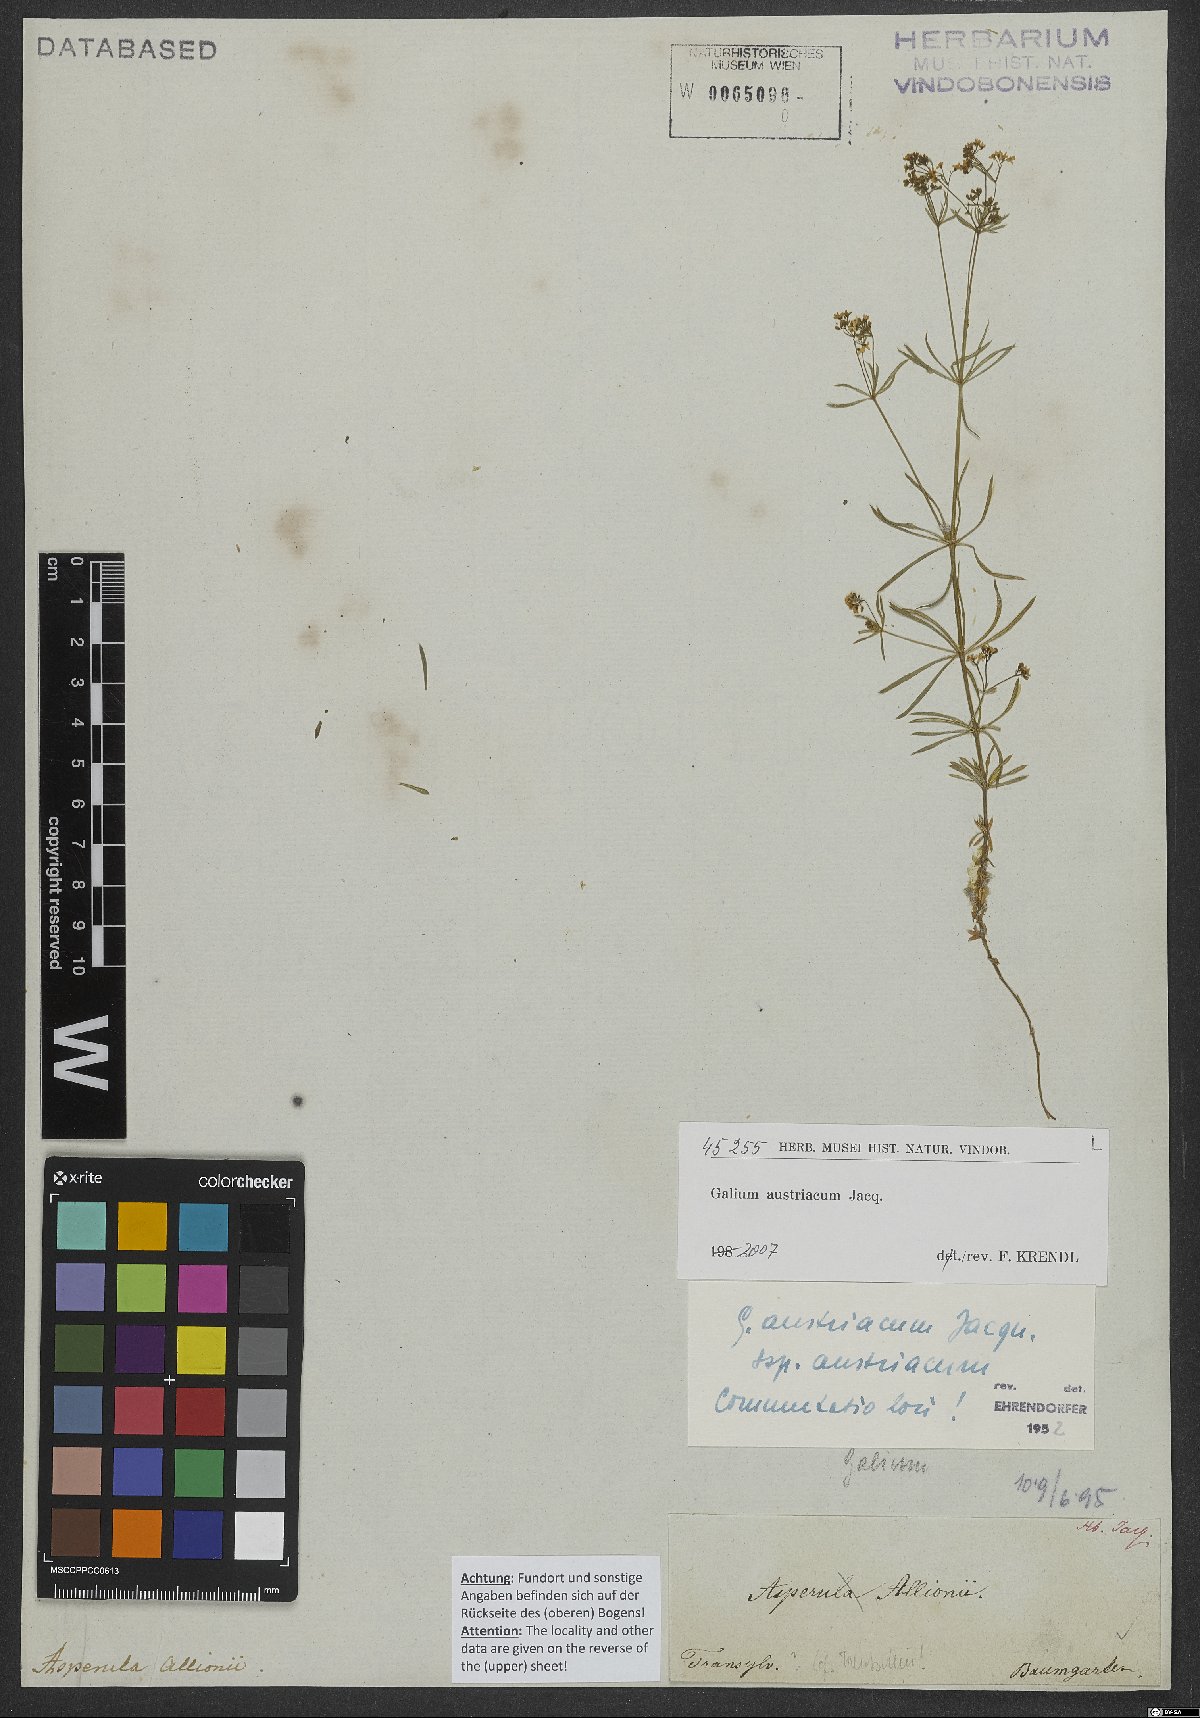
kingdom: Plantae
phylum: Tracheophyta
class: Magnoliopsida
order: Gentianales
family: Rubiaceae
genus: Galium
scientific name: Galium austriacum
